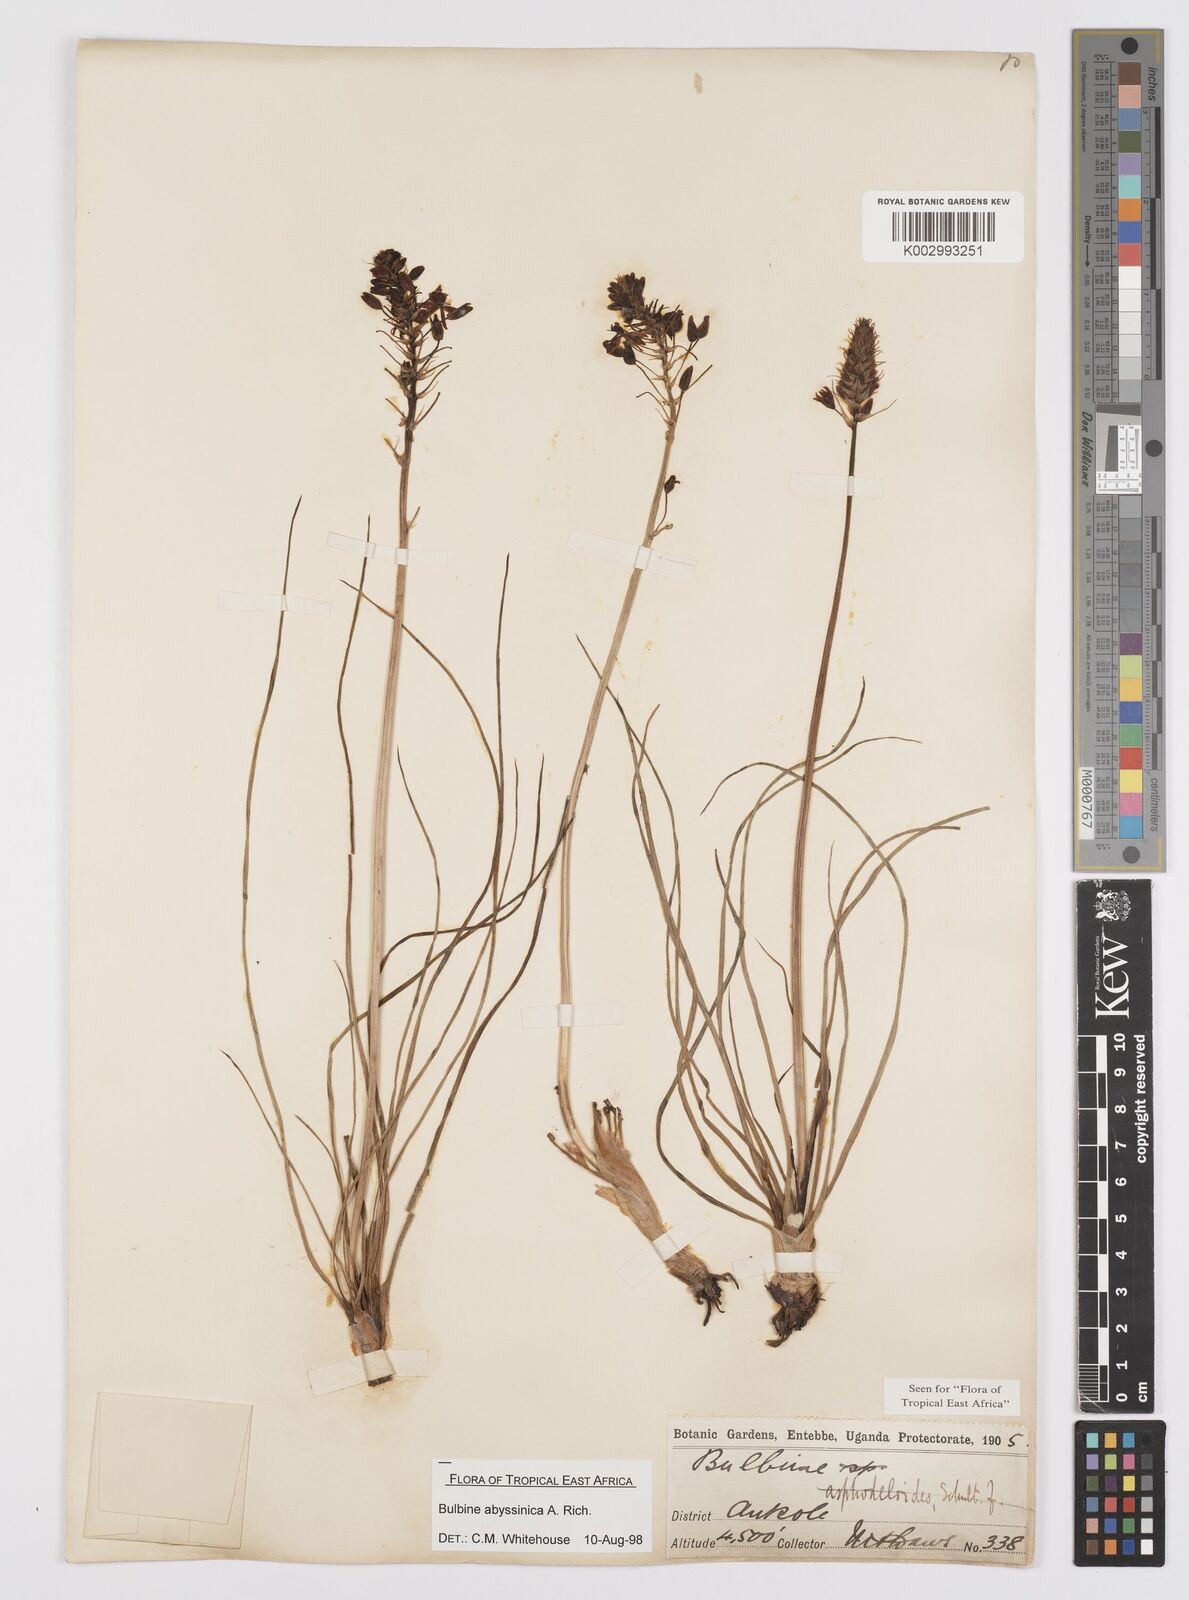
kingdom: Plantae
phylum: Tracheophyta
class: Liliopsida
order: Asparagales
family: Asphodelaceae
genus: Bulbine
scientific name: Bulbine abyssinica
